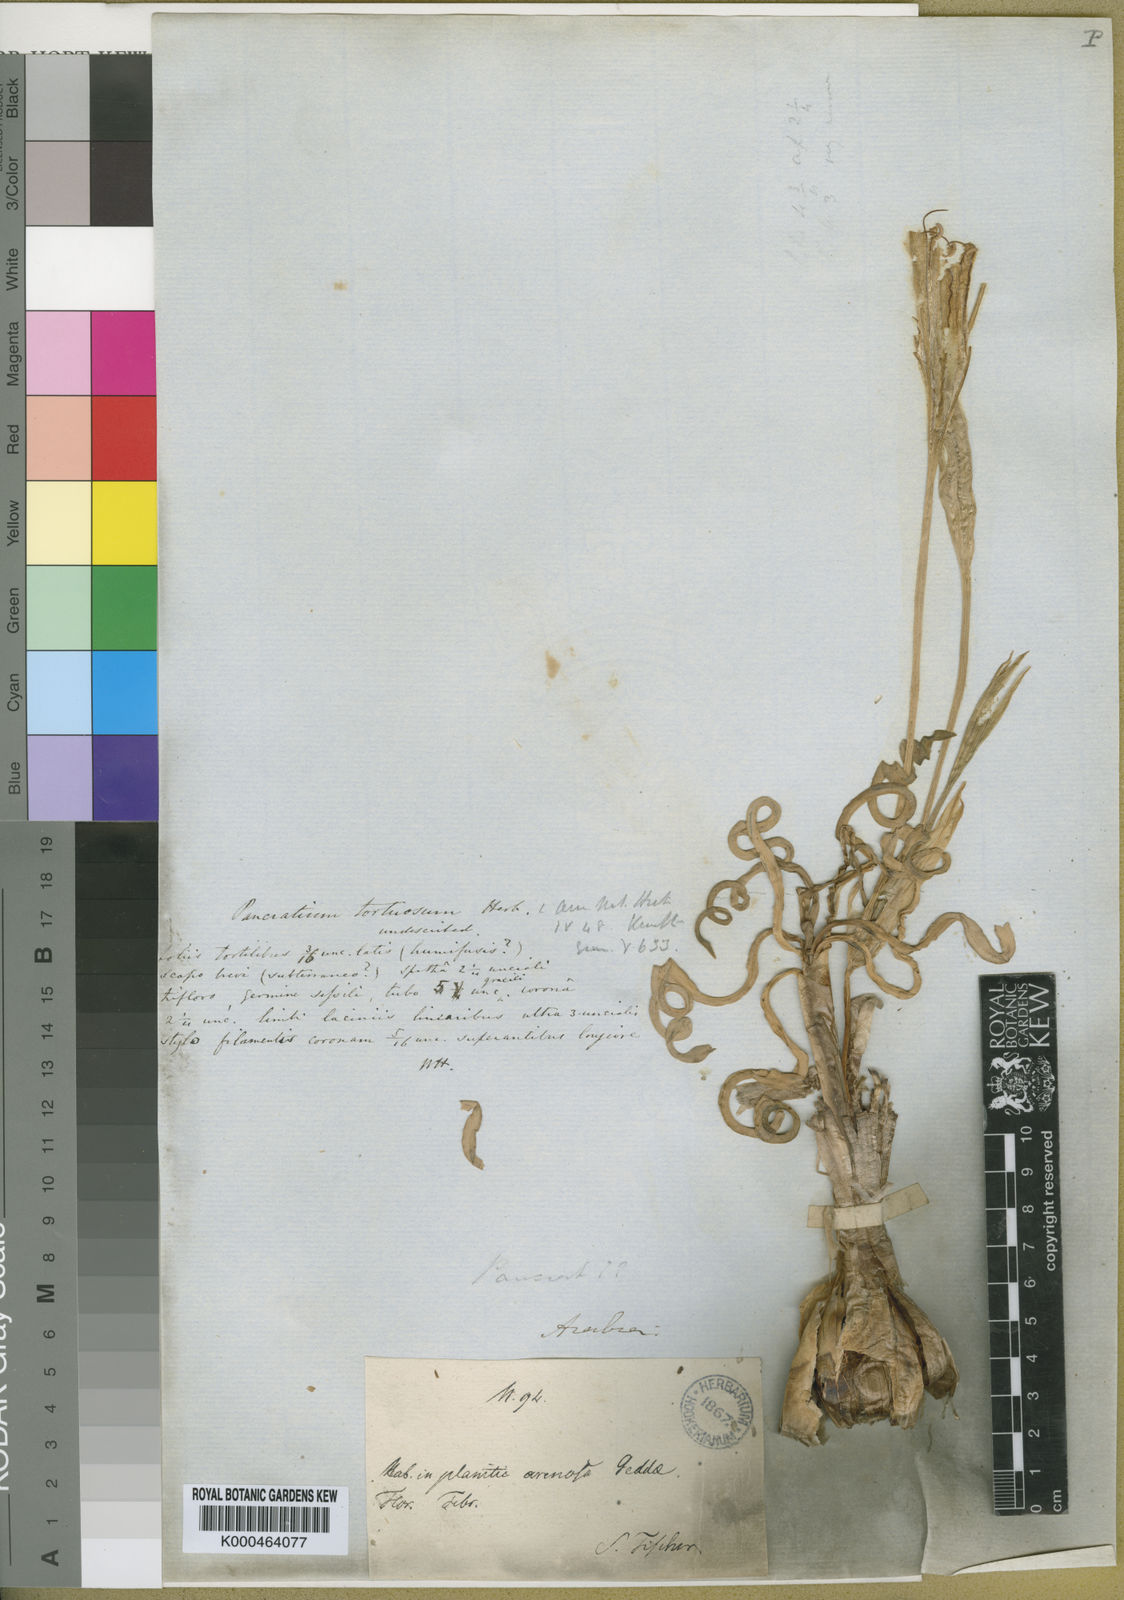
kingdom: Plantae
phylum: Tracheophyta
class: Liliopsida
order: Asparagales
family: Amaryllidaceae
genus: Pancratium
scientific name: Pancratium tortuosum
